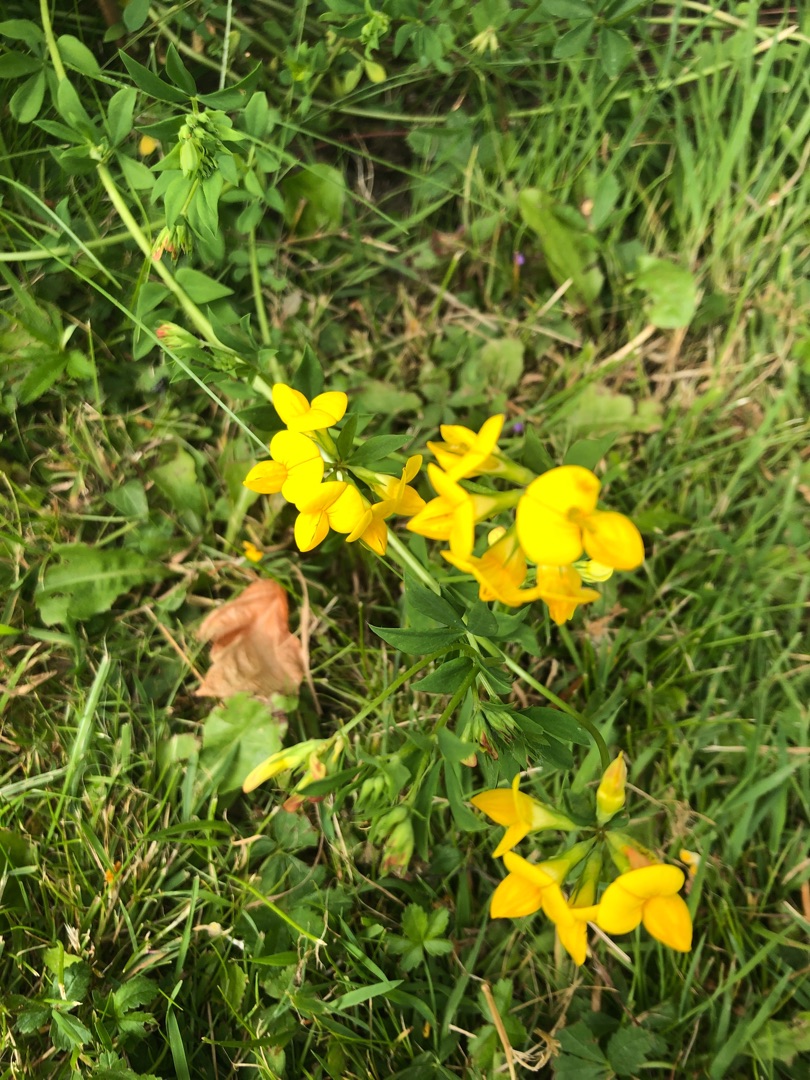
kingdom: Plantae
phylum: Tracheophyta
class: Magnoliopsida
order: Fabales
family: Fabaceae
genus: Lotus
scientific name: Lotus corniculatus
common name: Almindelig kællingetand
